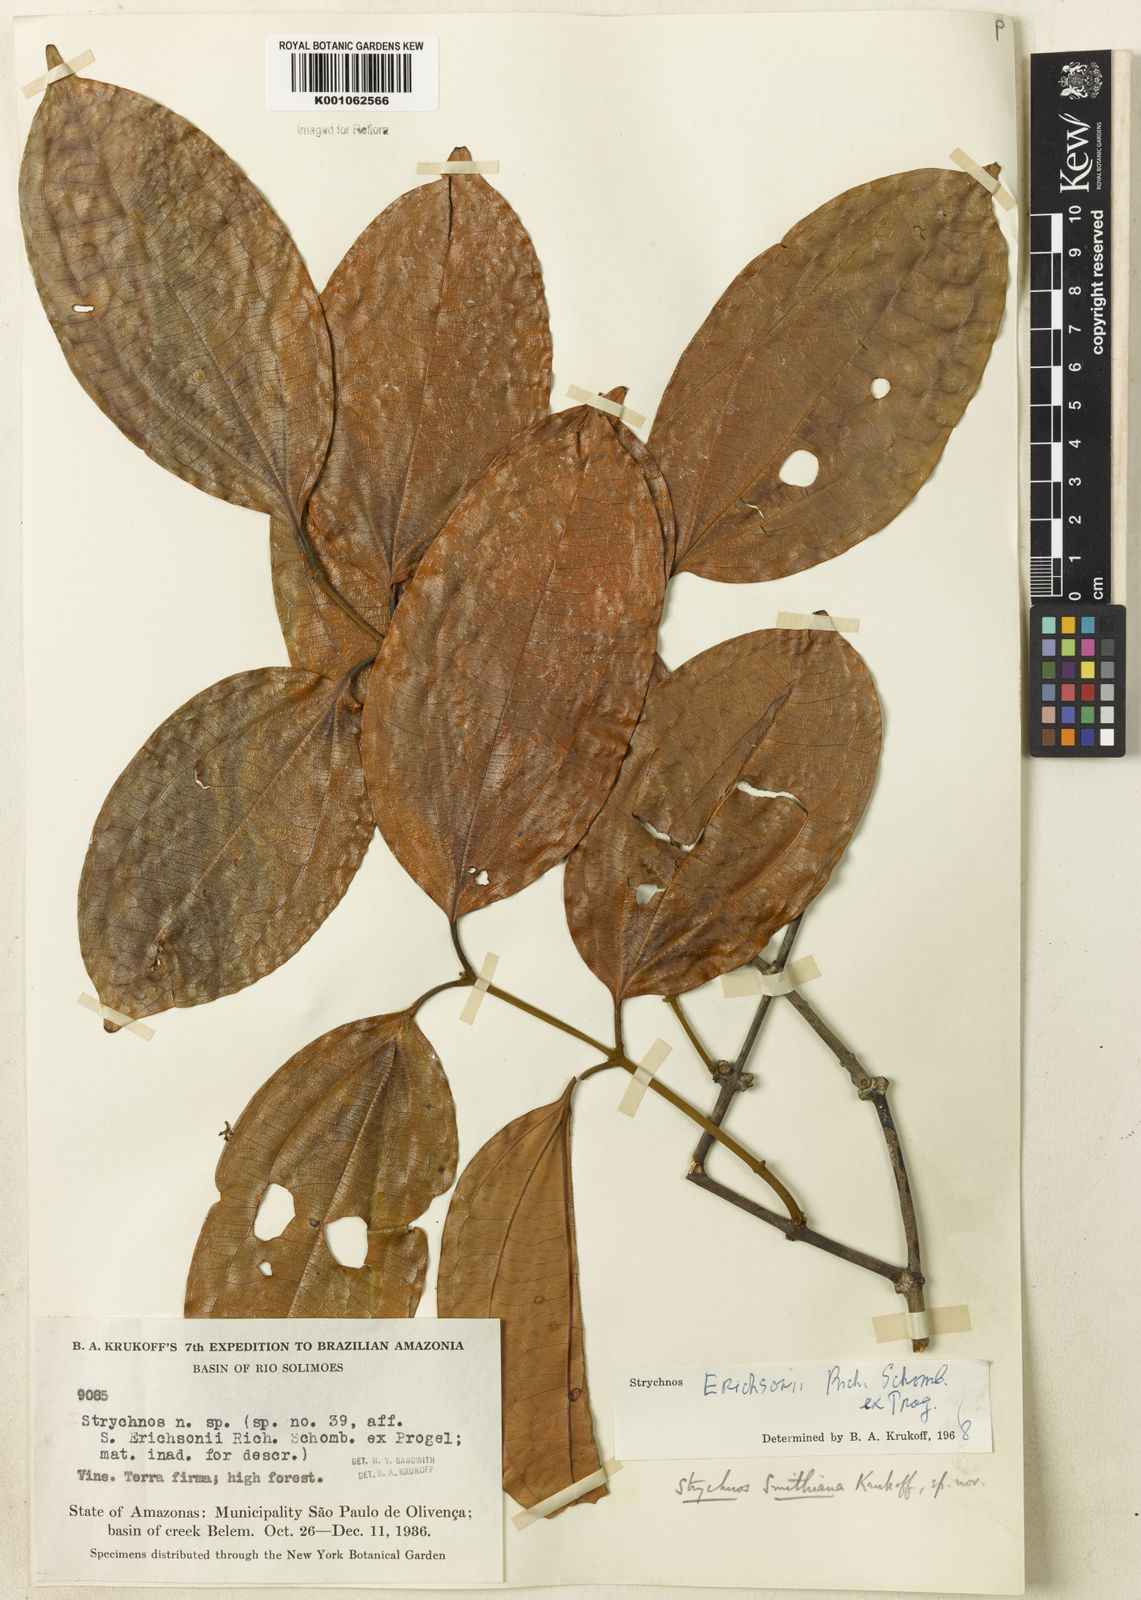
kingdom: Plantae
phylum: Tracheophyta
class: Magnoliopsida
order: Gentianales
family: Loganiaceae
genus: Strychnos
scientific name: Strychnos erichsonii
